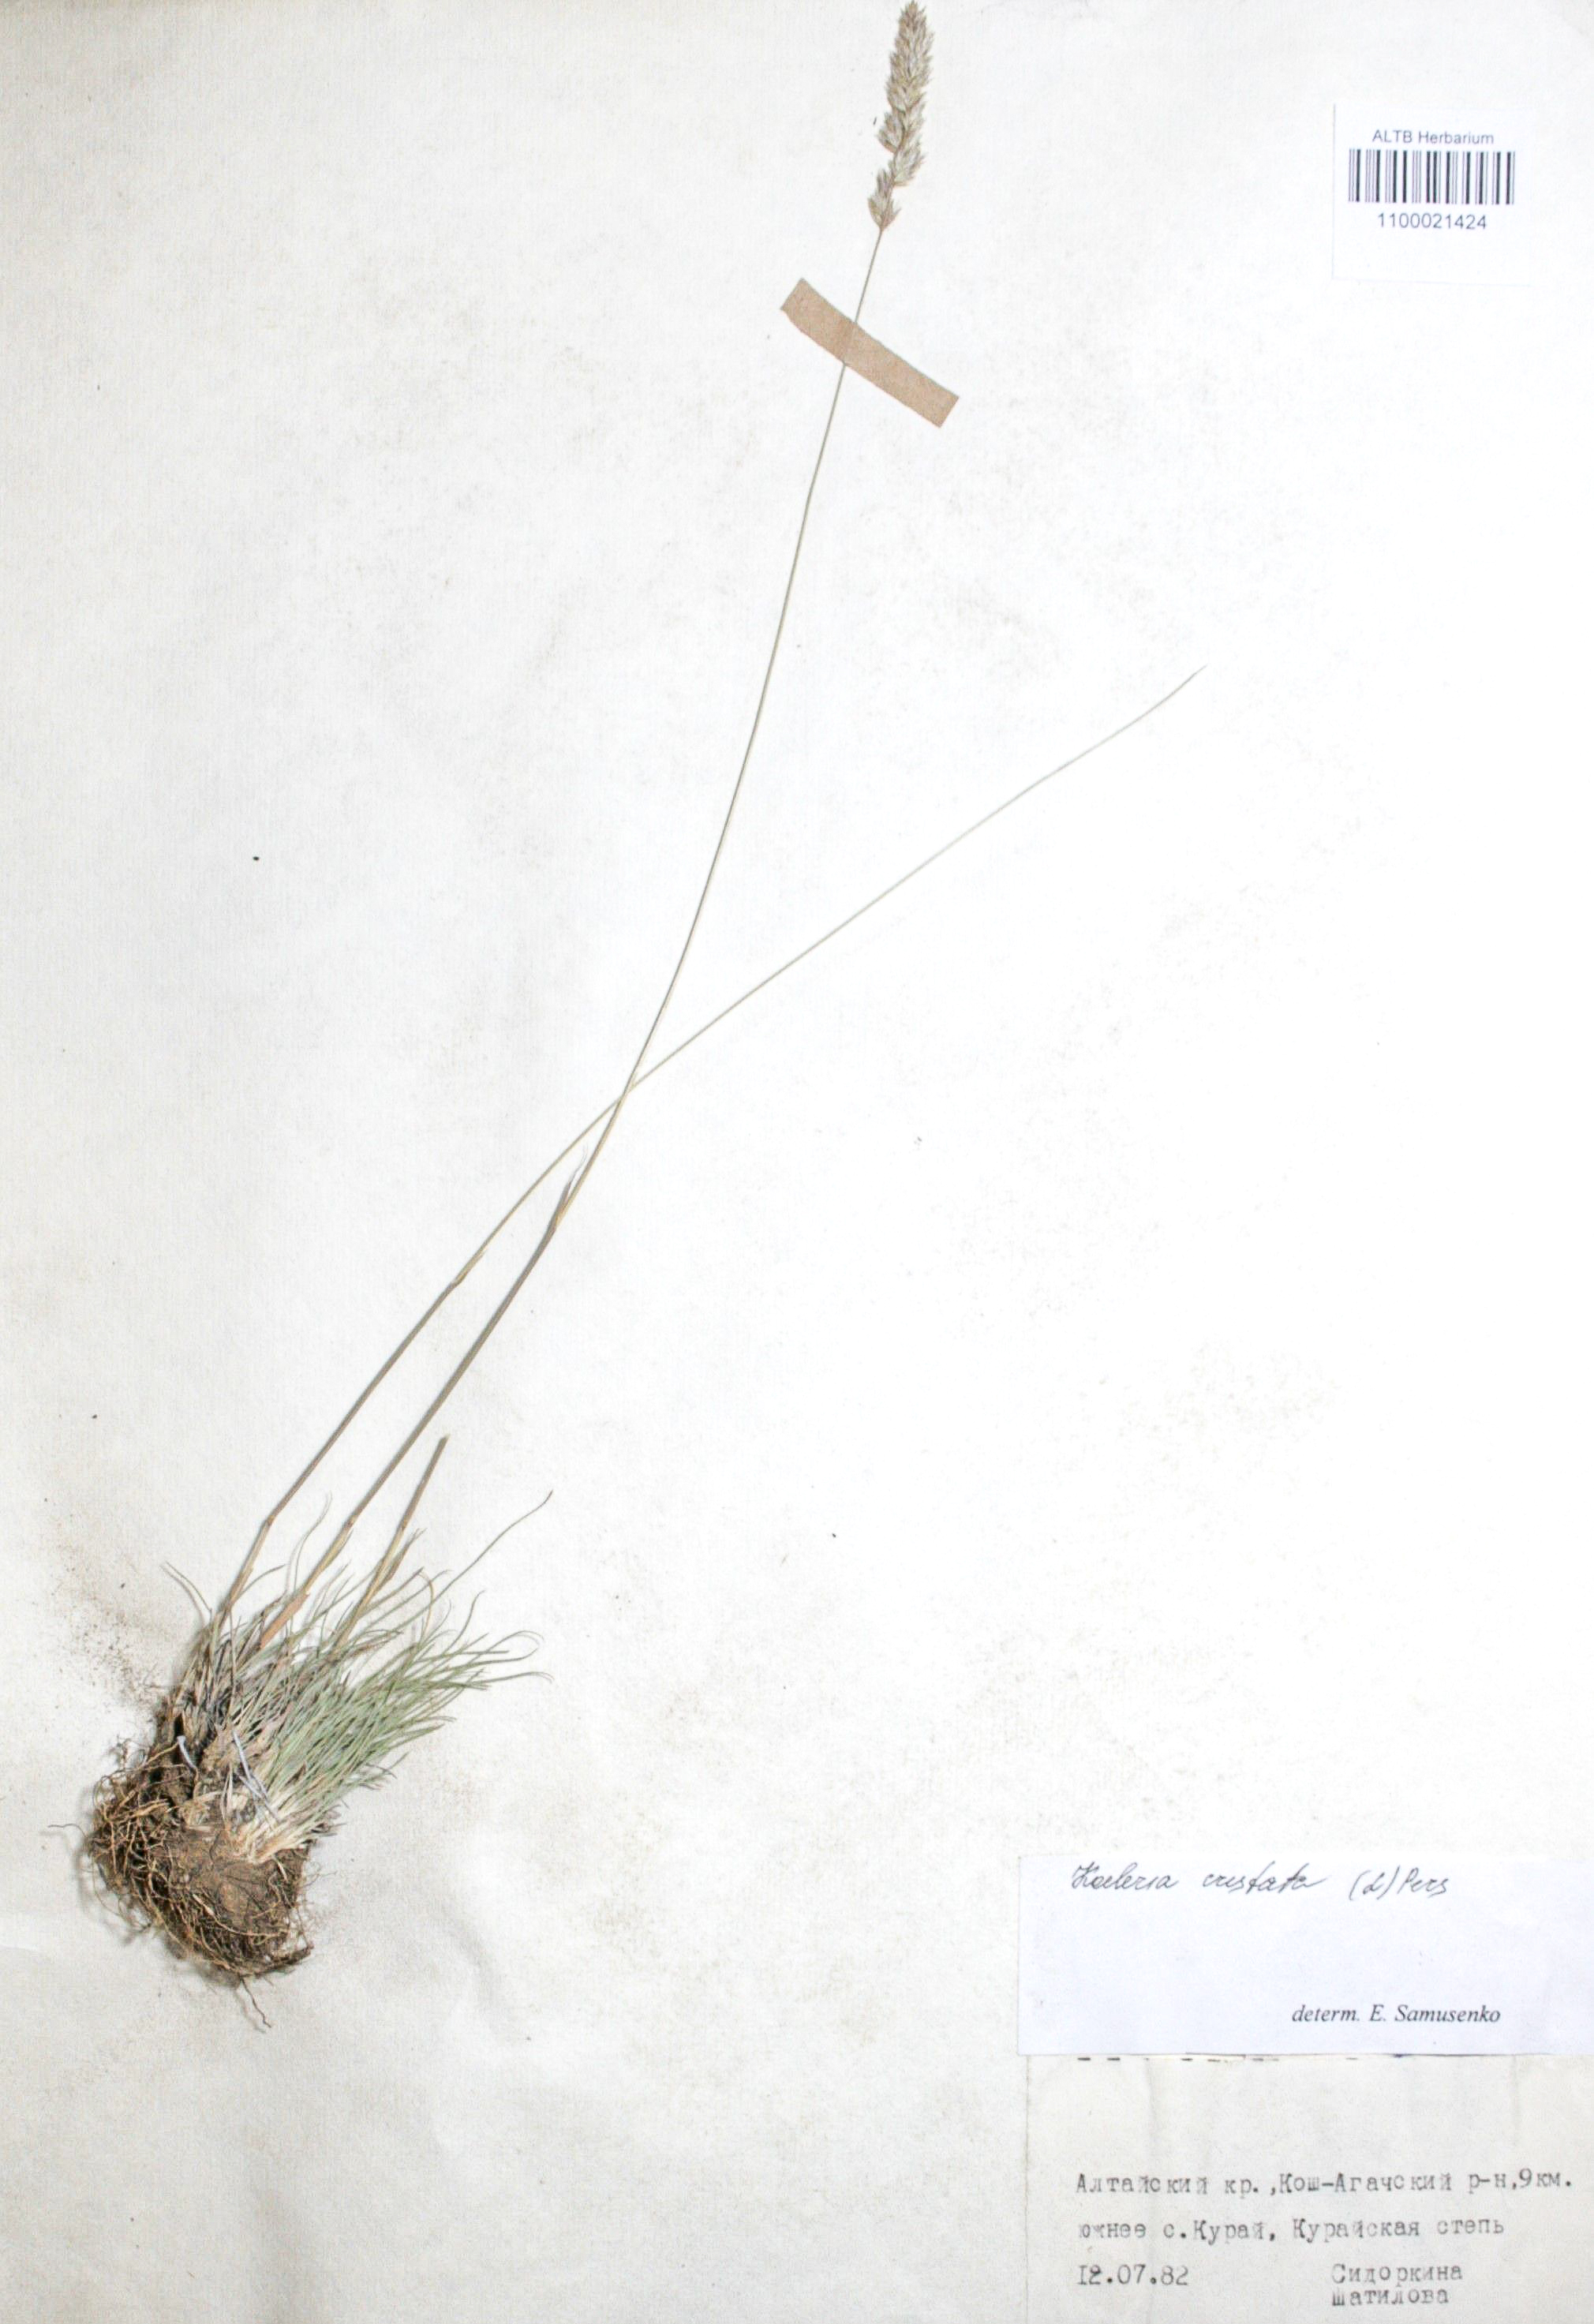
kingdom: Plantae
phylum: Tracheophyta
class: Liliopsida
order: Poales
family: Poaceae
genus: Koeleria
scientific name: Koeleria pyramidata
